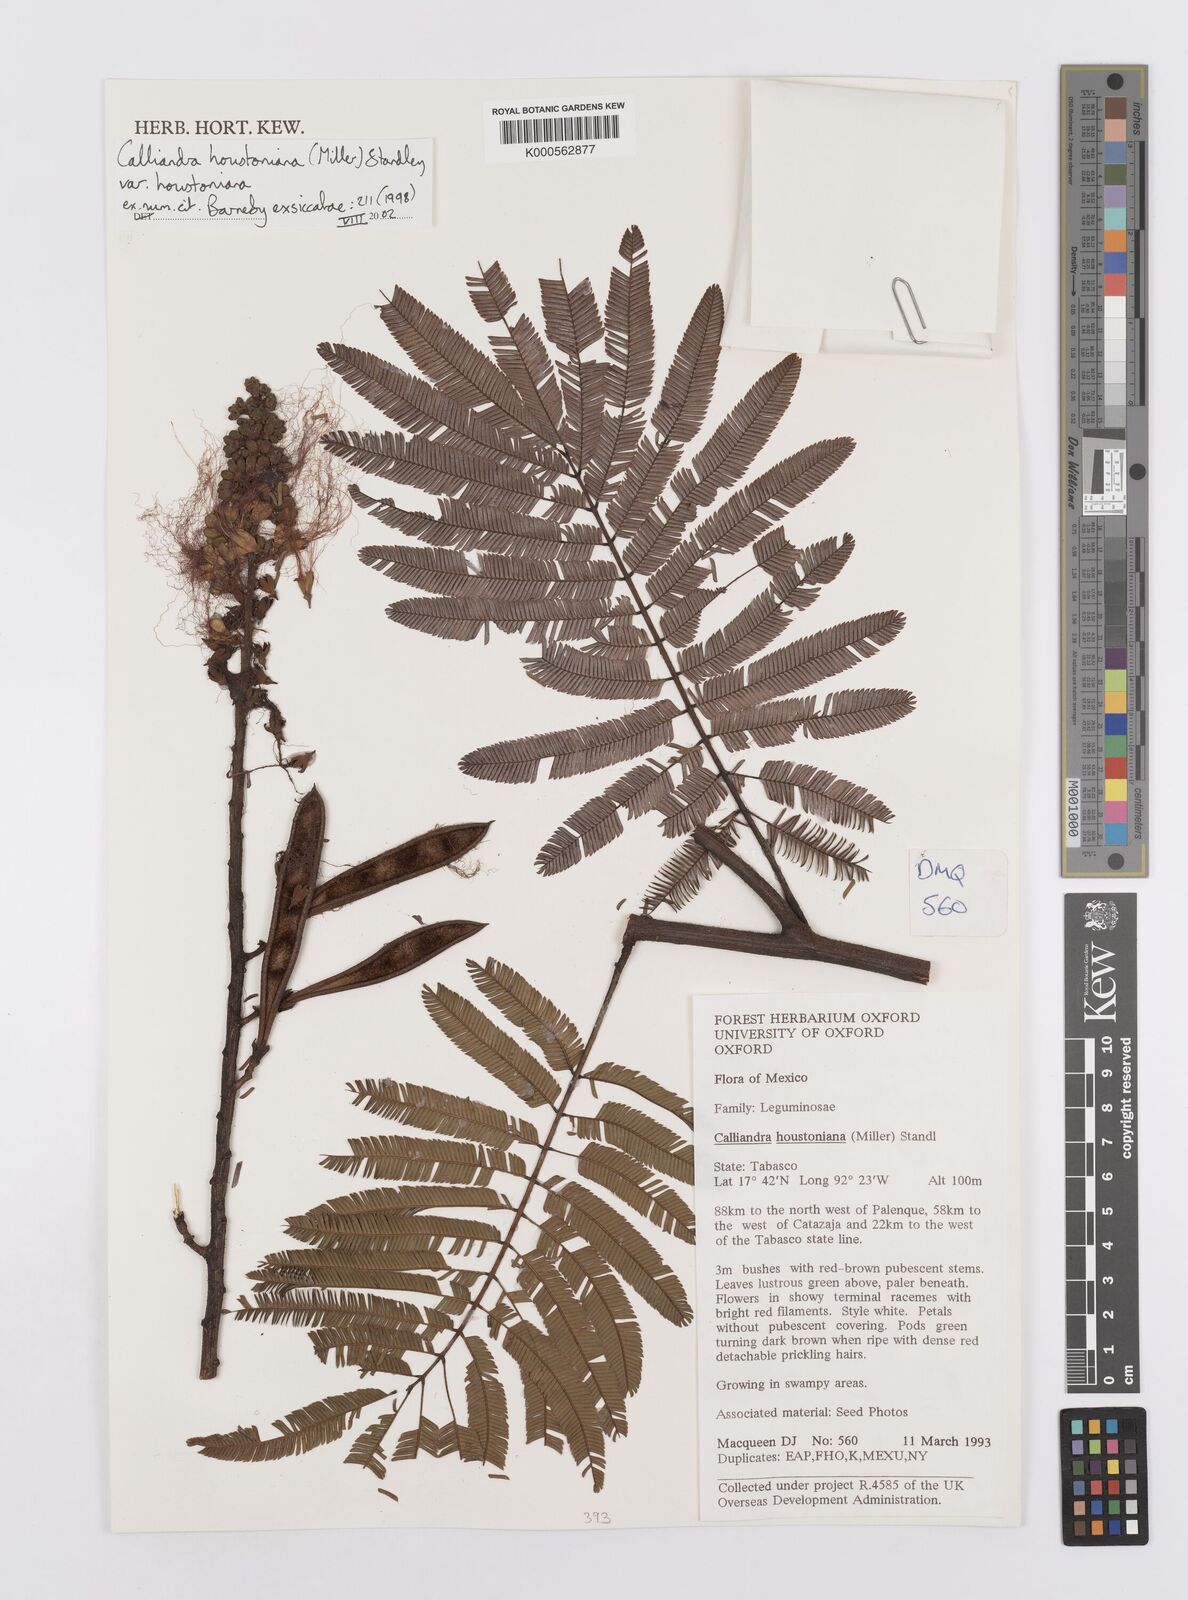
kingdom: Plantae
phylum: Tracheophyta
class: Magnoliopsida
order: Fabales
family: Fabaceae
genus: Calliandra
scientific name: Calliandra houstoniana
